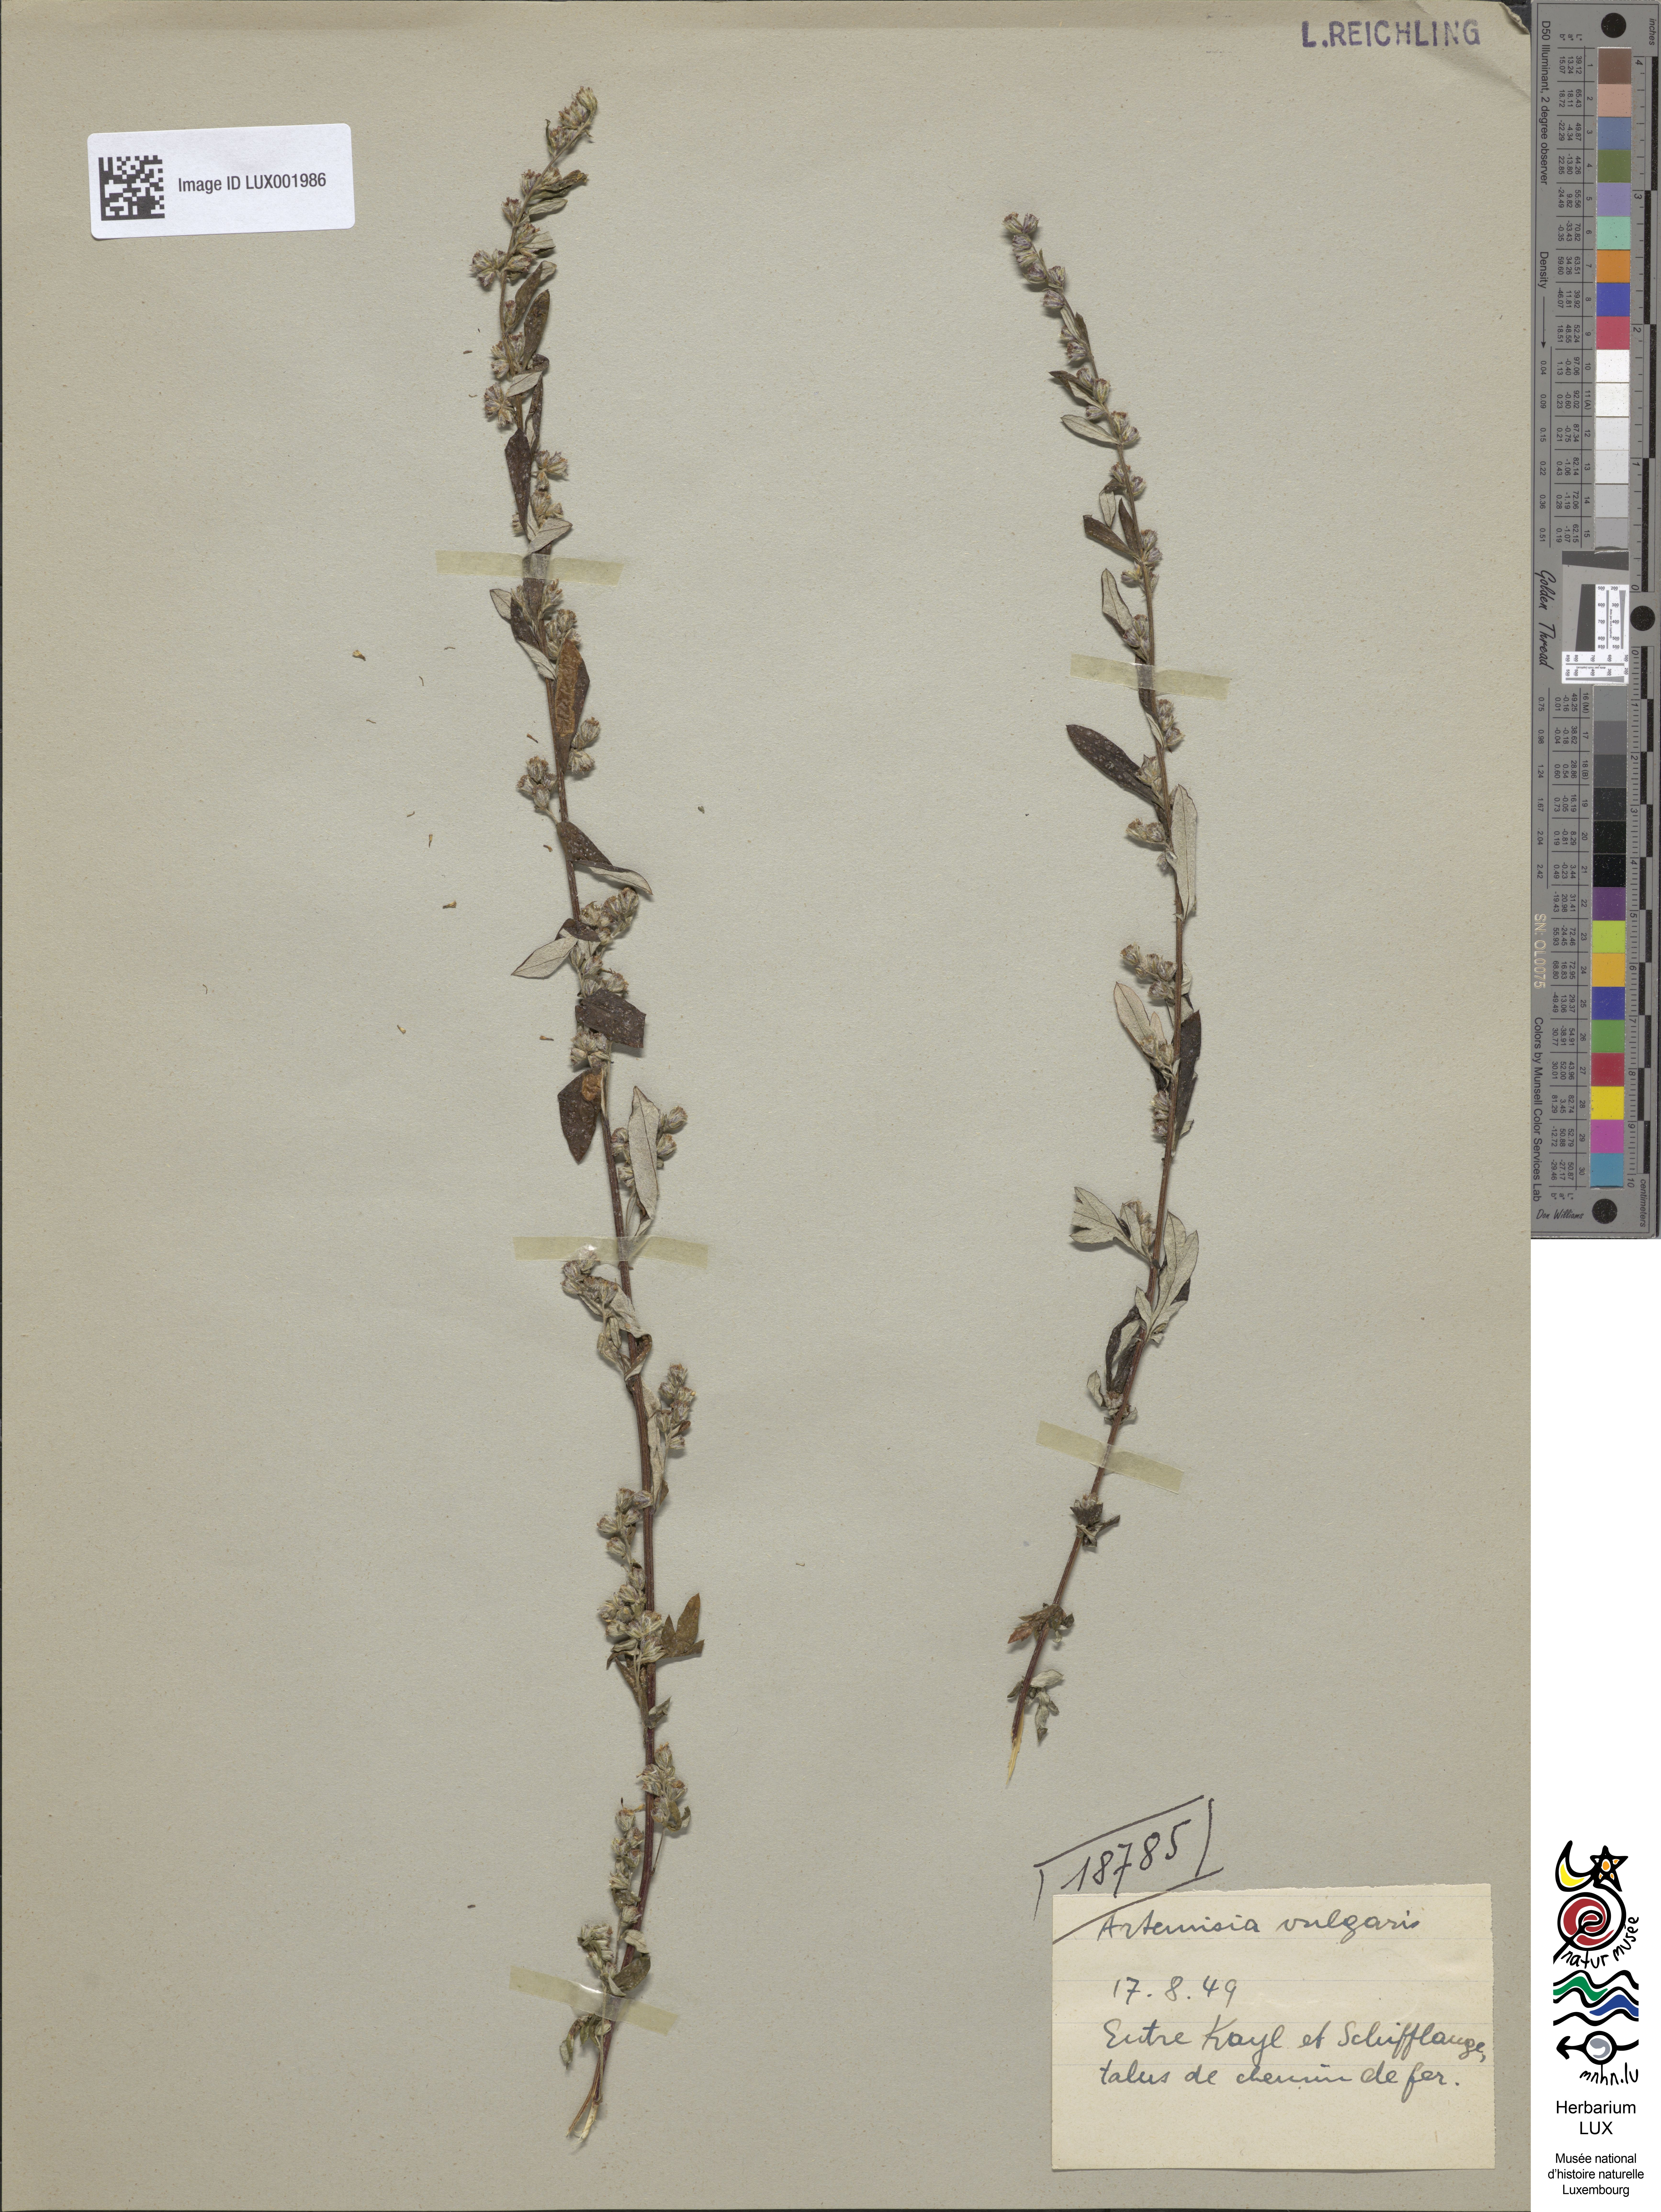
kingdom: Plantae
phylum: Tracheophyta
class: Magnoliopsida
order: Asterales
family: Asteraceae
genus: Artemisia
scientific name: Artemisia vulgaris
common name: Mugwort
